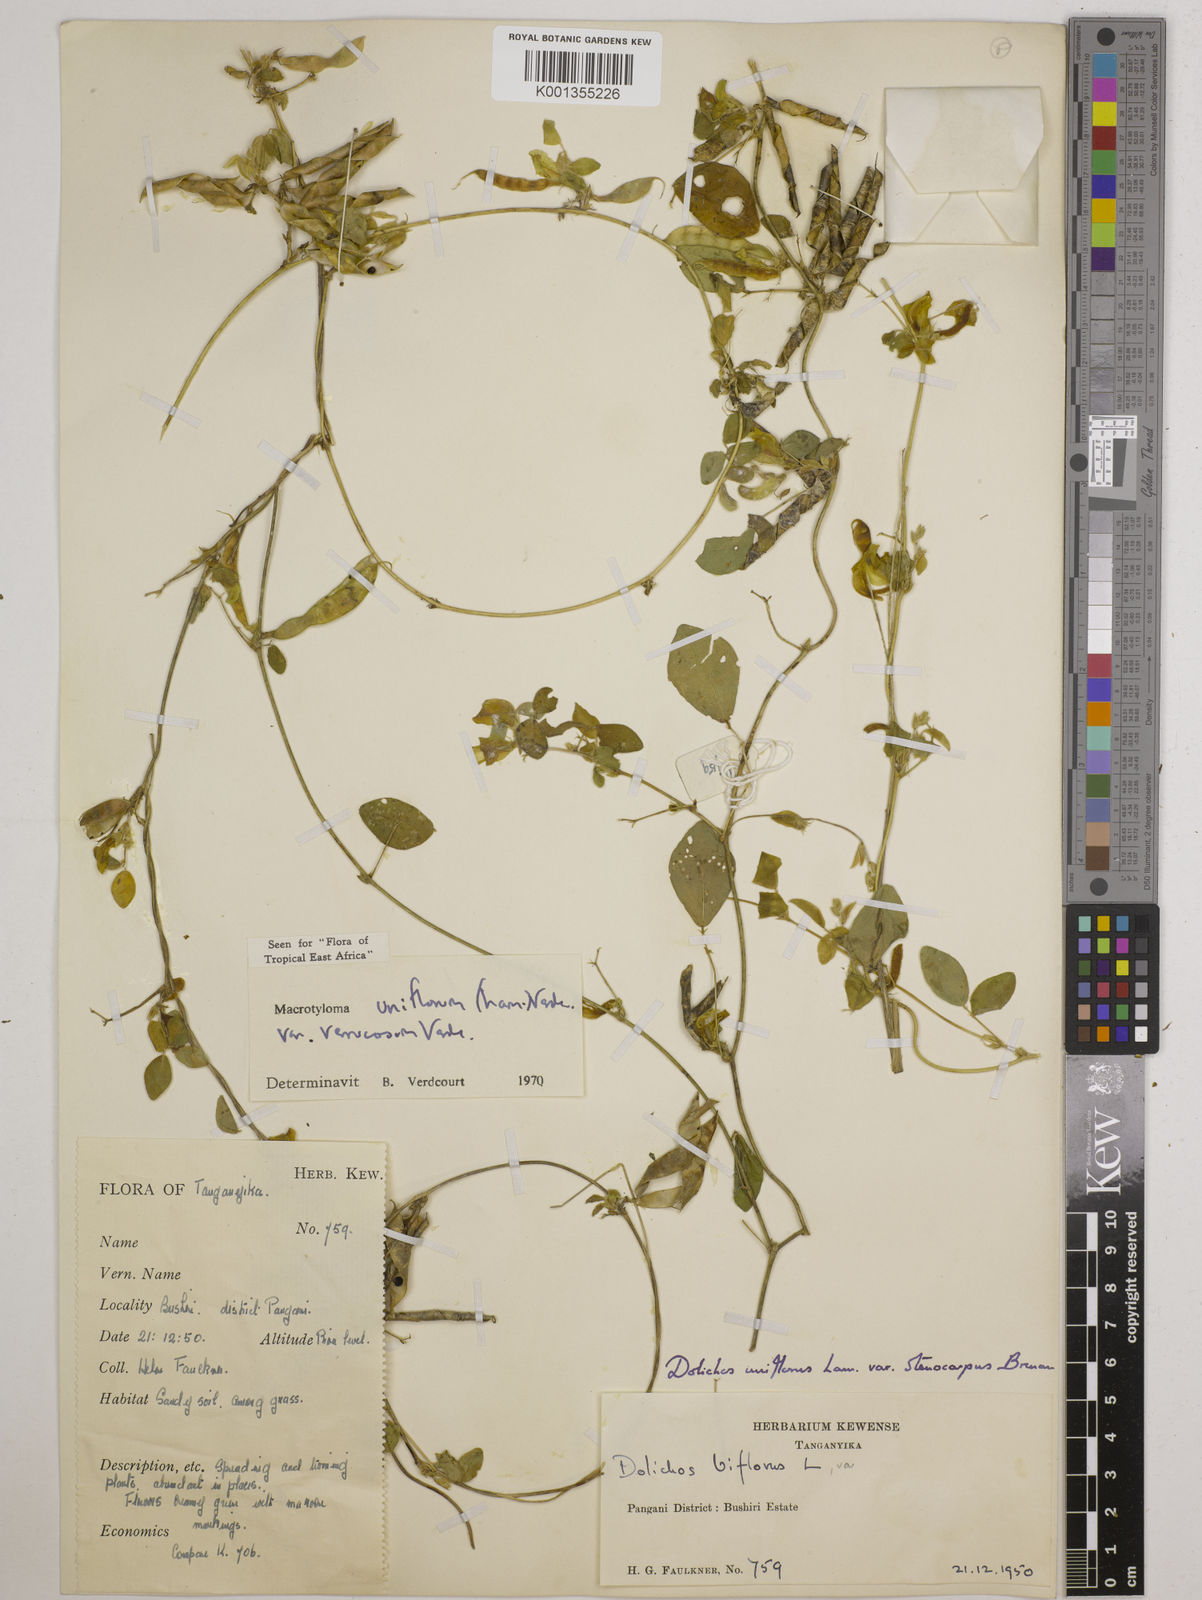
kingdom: Plantae
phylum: Tracheophyta
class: Magnoliopsida
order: Fabales
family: Fabaceae
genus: Macrotyloma
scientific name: Macrotyloma
